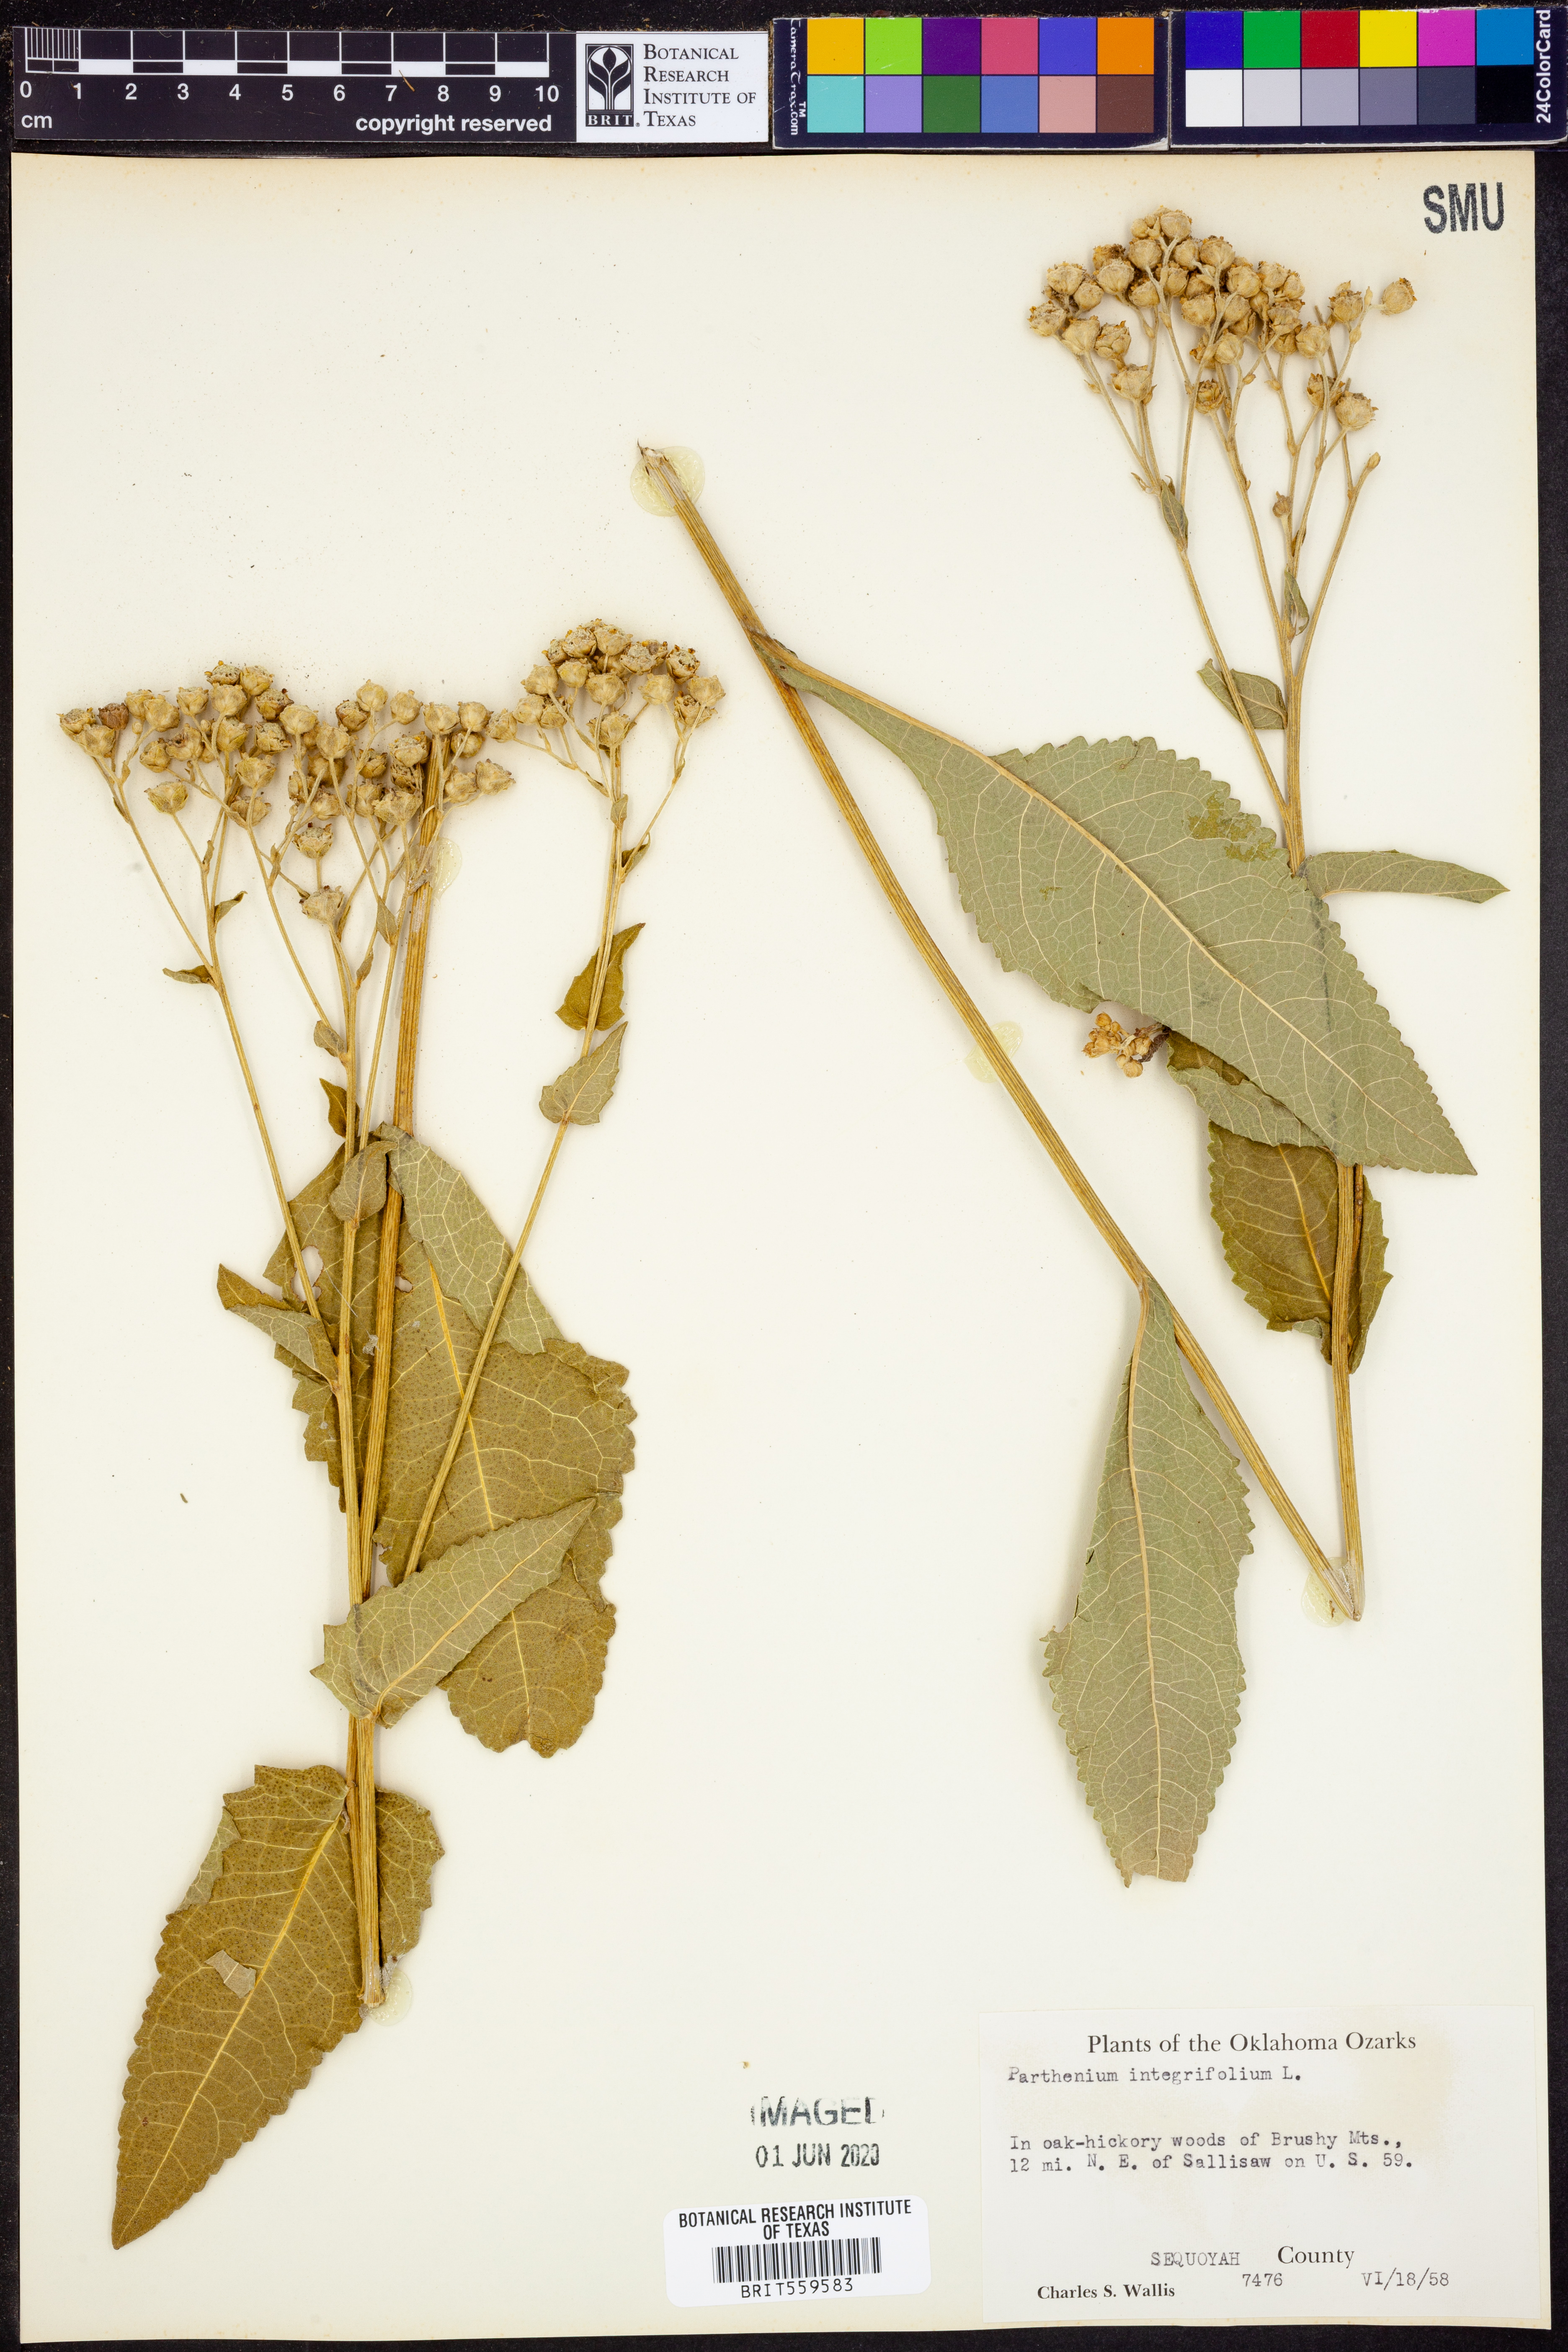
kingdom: Plantae
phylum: Tracheophyta
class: Magnoliopsida
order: Asterales
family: Asteraceae
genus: Parthenium
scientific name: Parthenium integrifolium
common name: American feverfew
